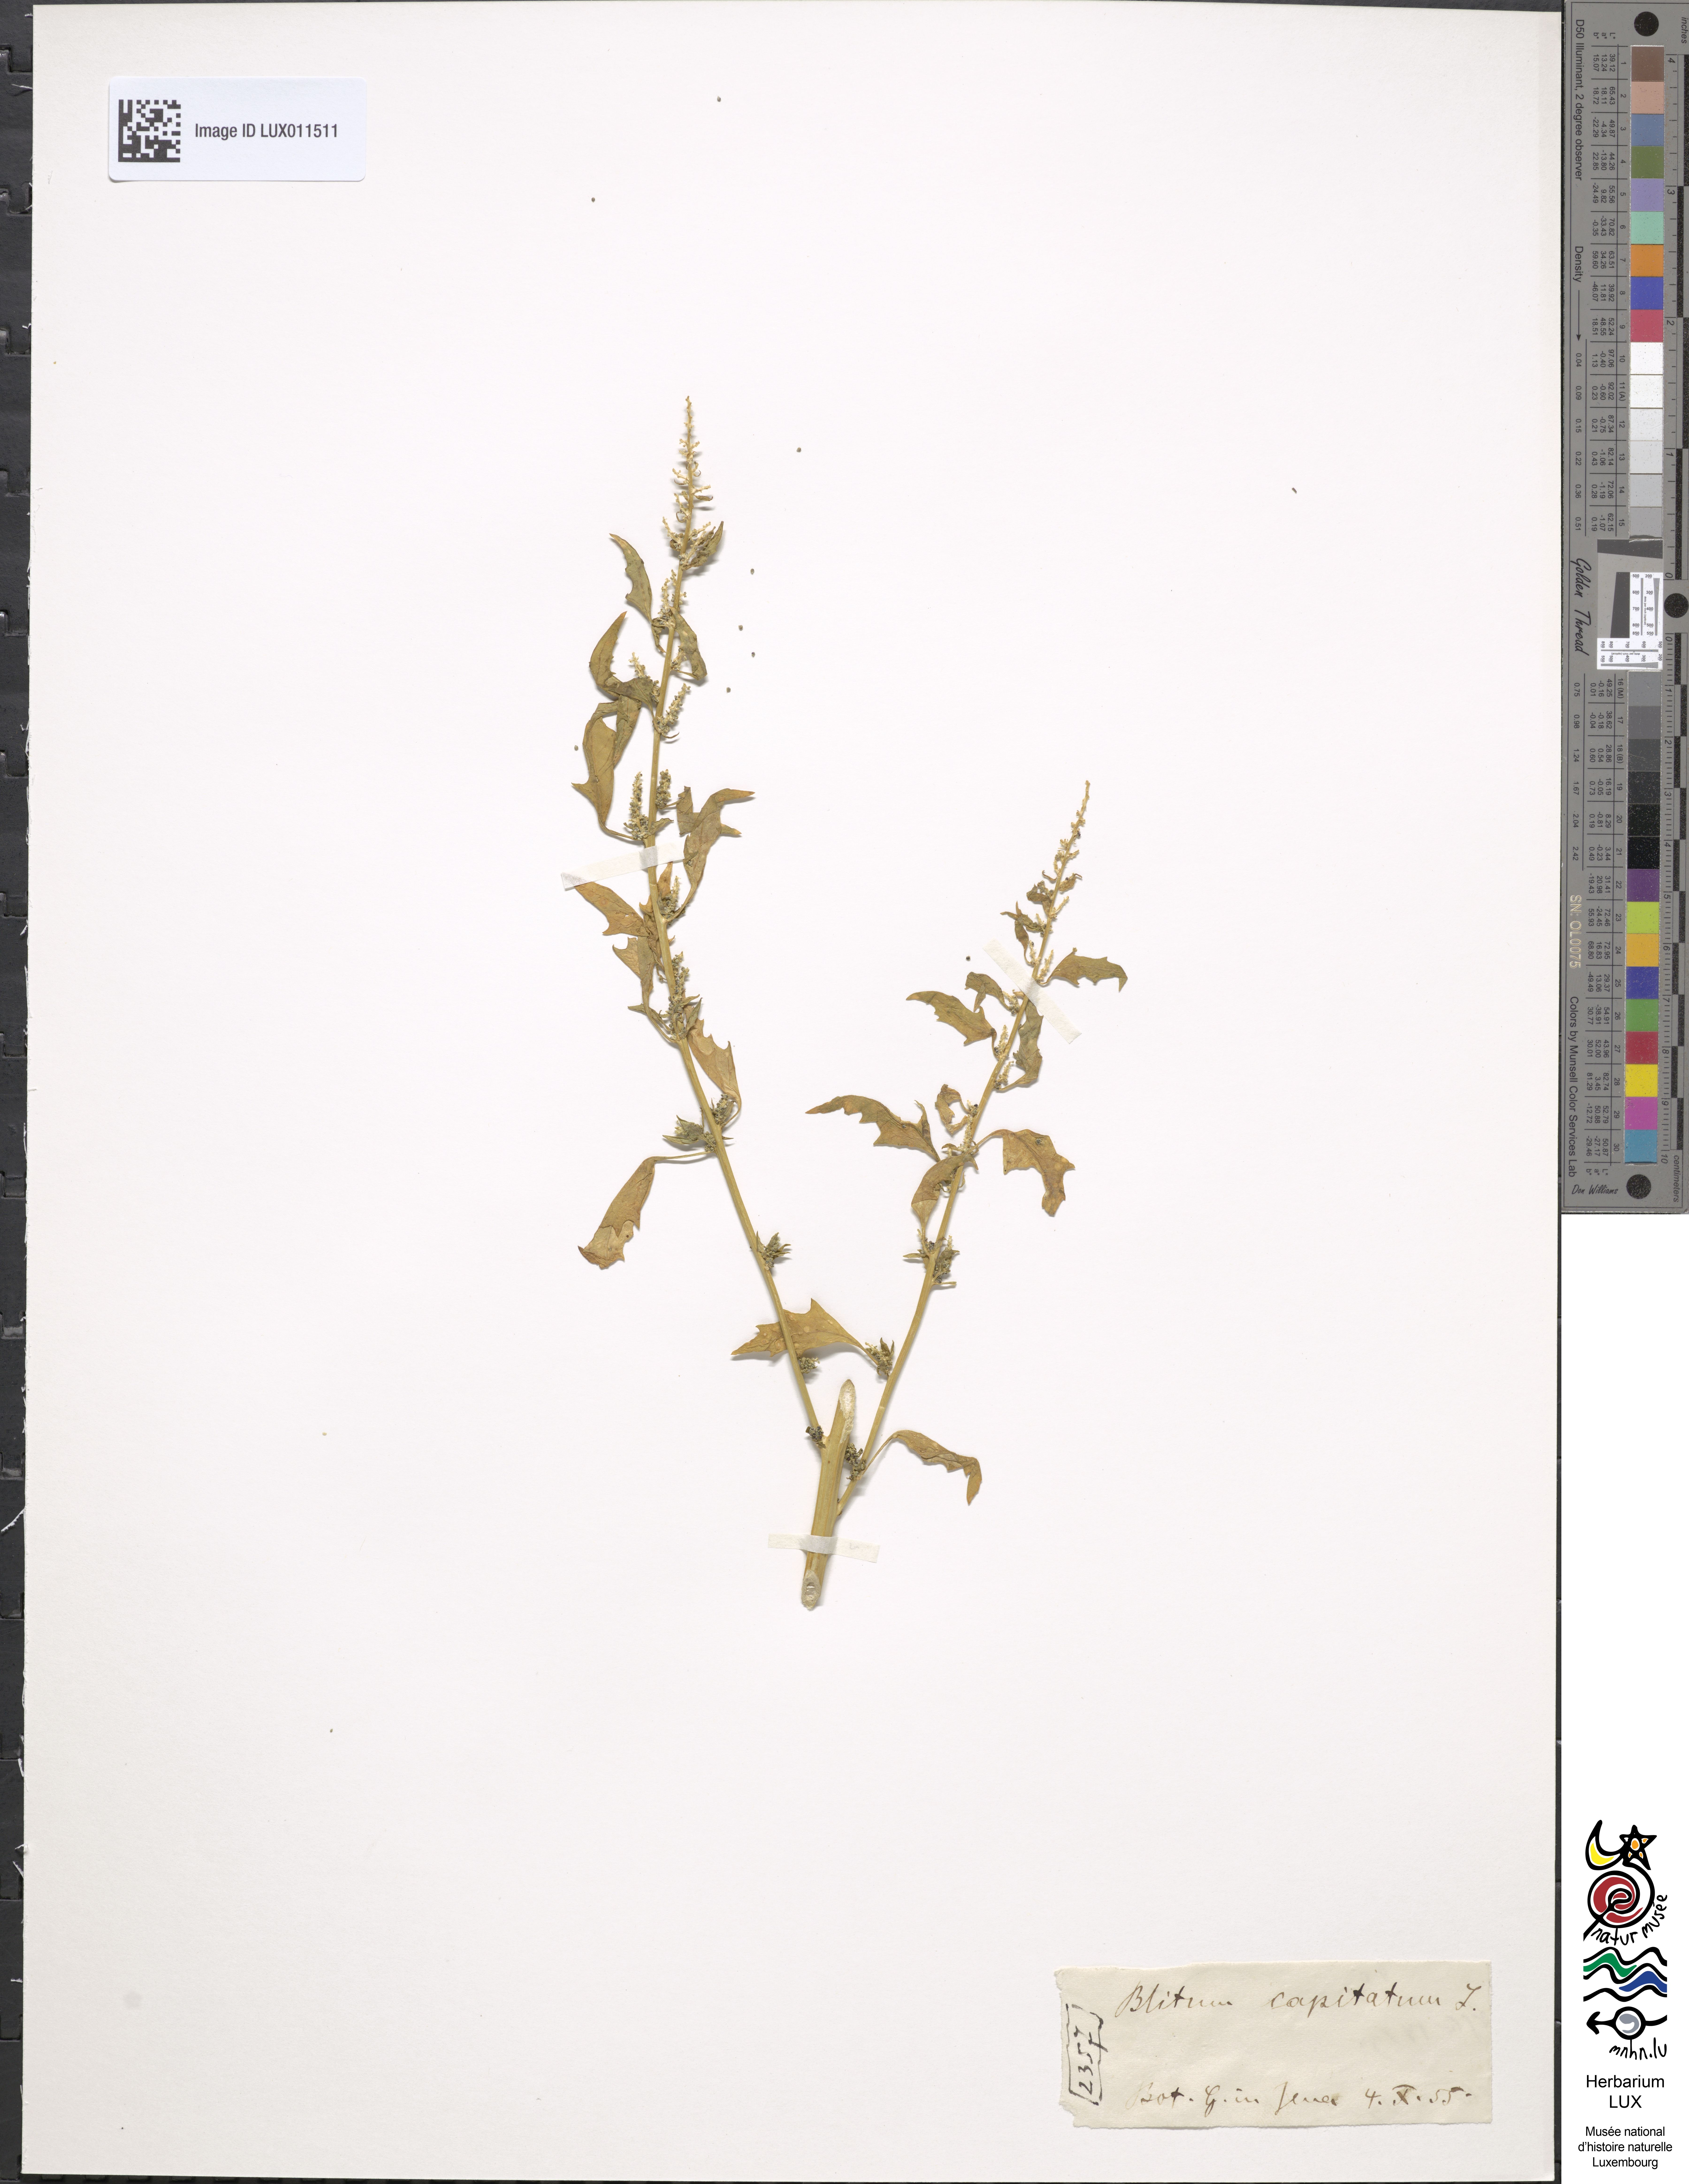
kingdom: Plantae
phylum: Tracheophyta
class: Magnoliopsida
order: Caryophyllales
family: Amaranthaceae
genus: Blitum
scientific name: Blitum capitatum
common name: Strawberry-blight
